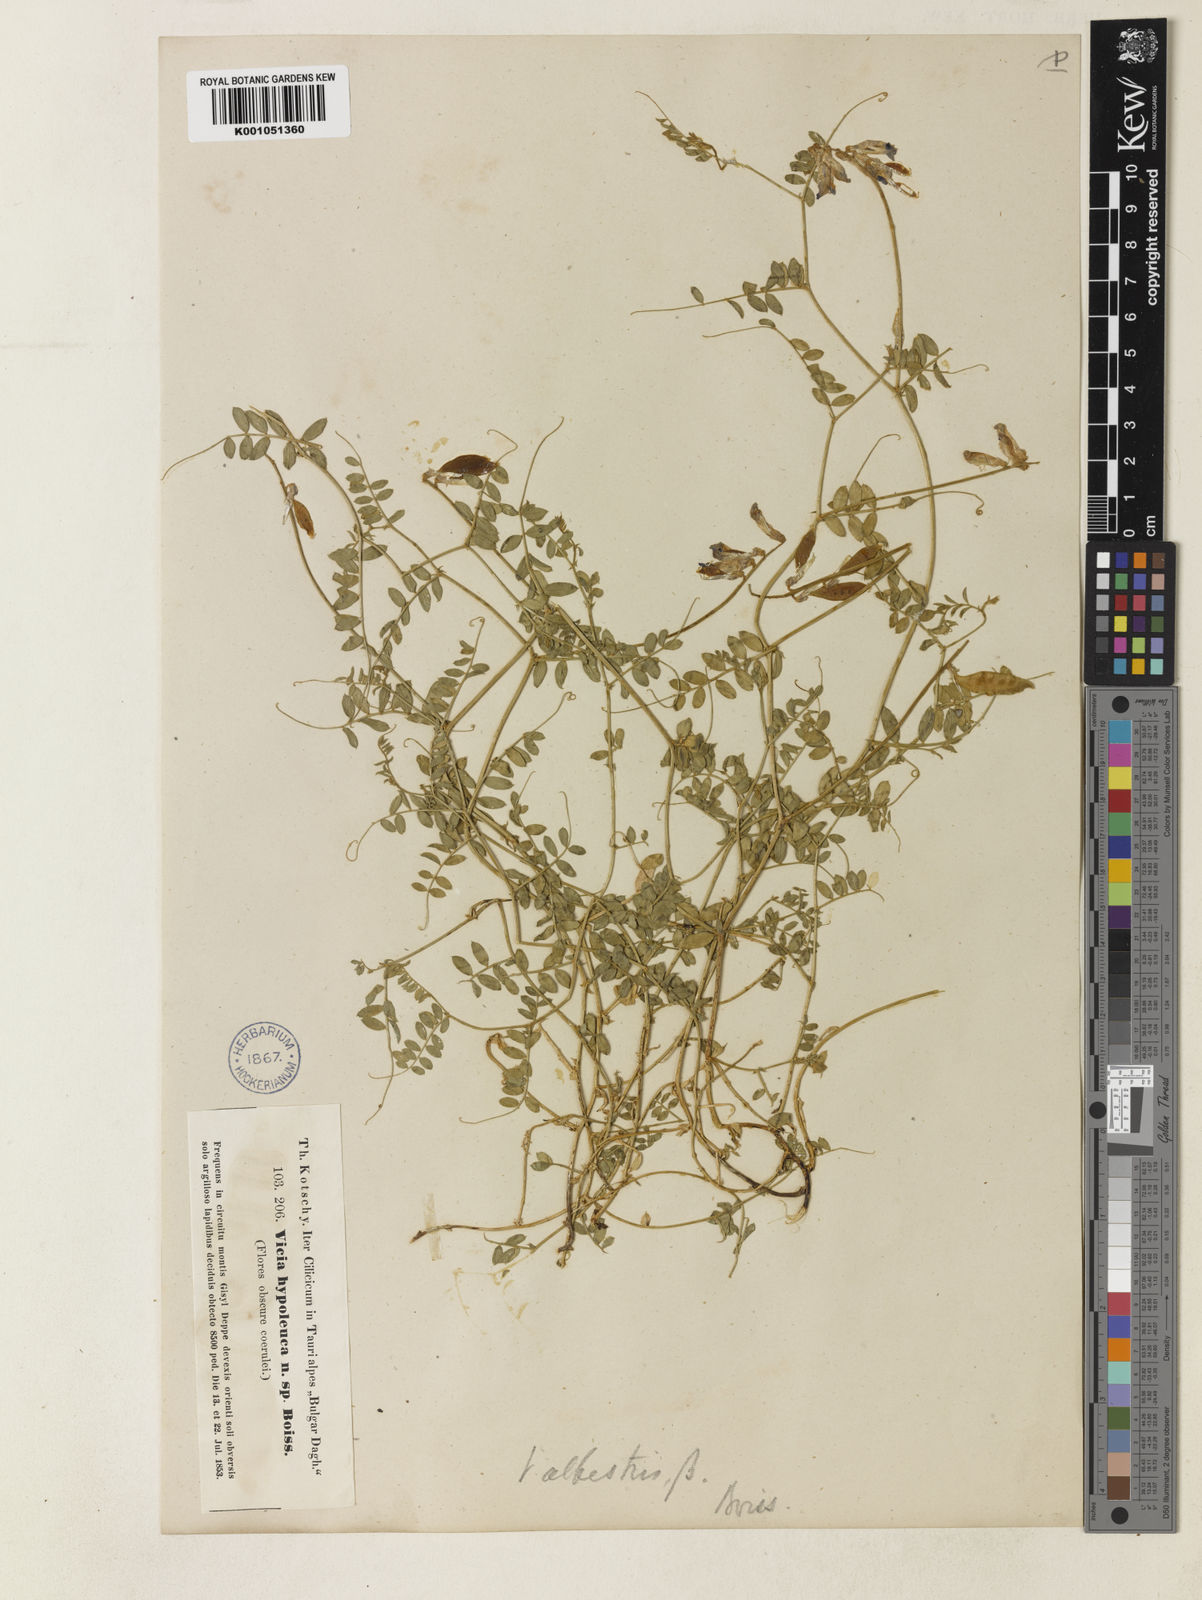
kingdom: Plantae
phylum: Tracheophyta
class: Magnoliopsida
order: Fabales
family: Fabaceae
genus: Vicia
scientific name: Vicia alpestris
